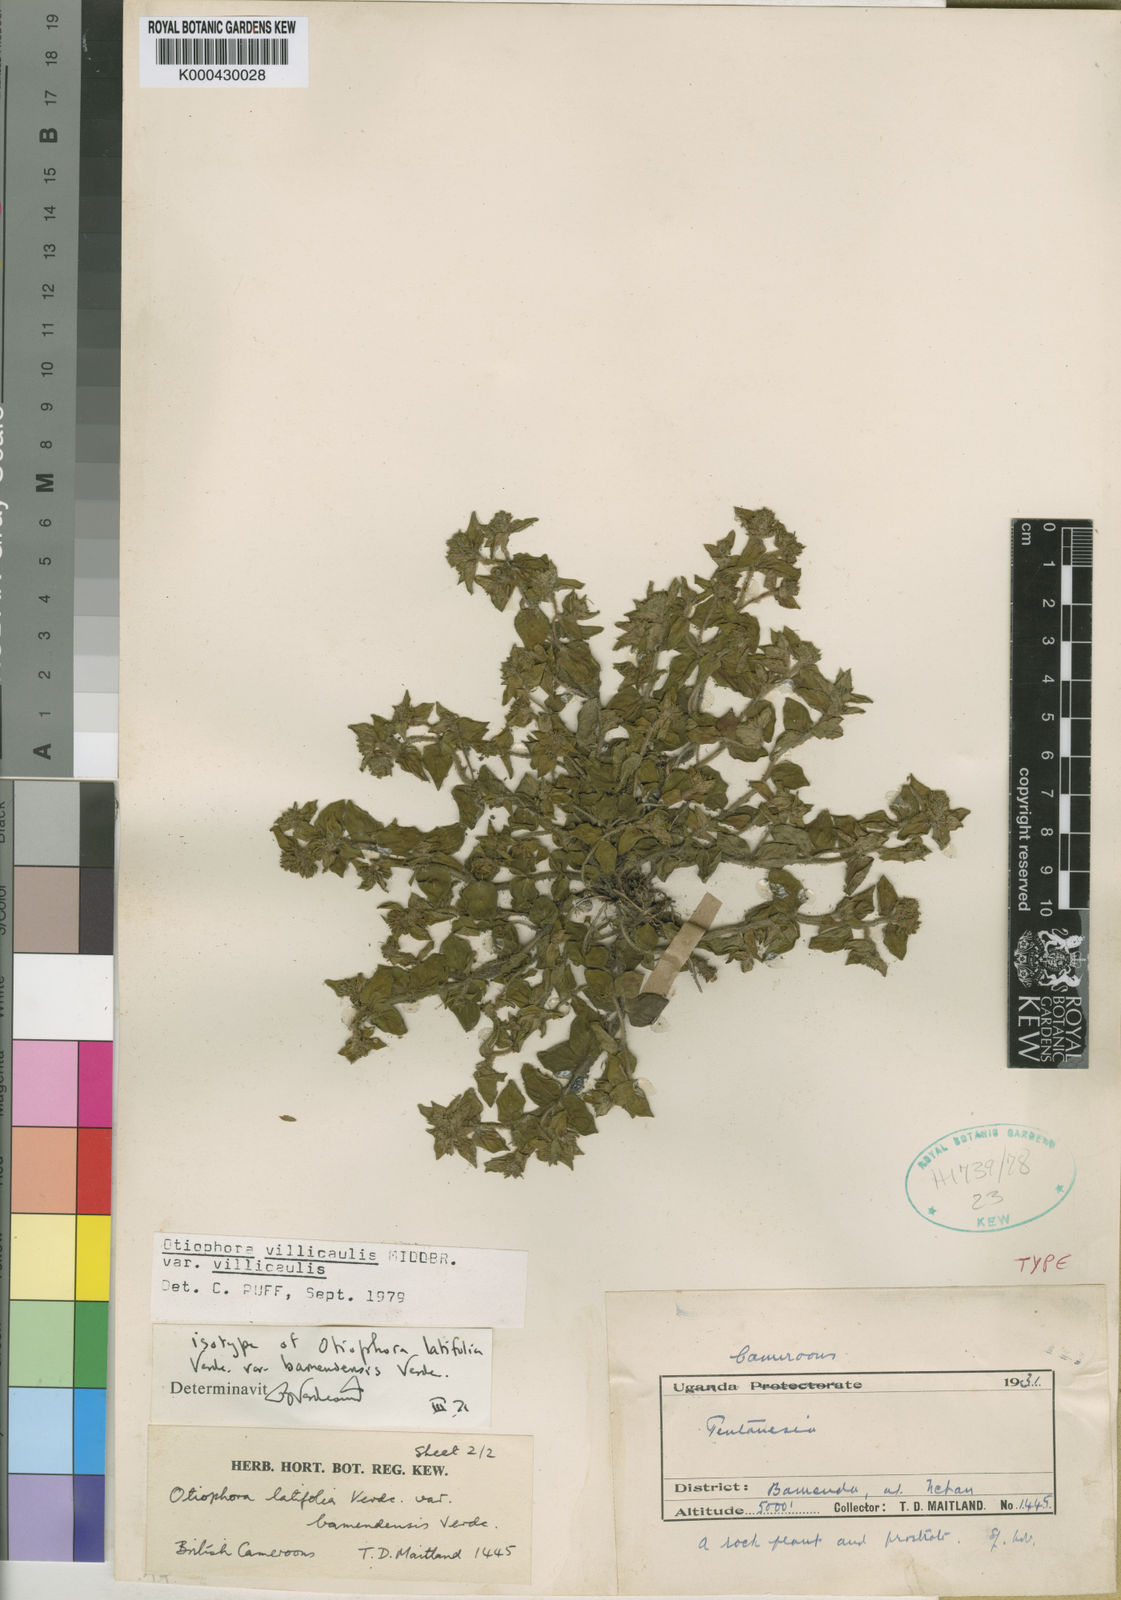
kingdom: Plantae
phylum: Tracheophyta
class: Magnoliopsida
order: Gentianales
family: Rubiaceae
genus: Otiophora
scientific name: Otiophora villicaulis
